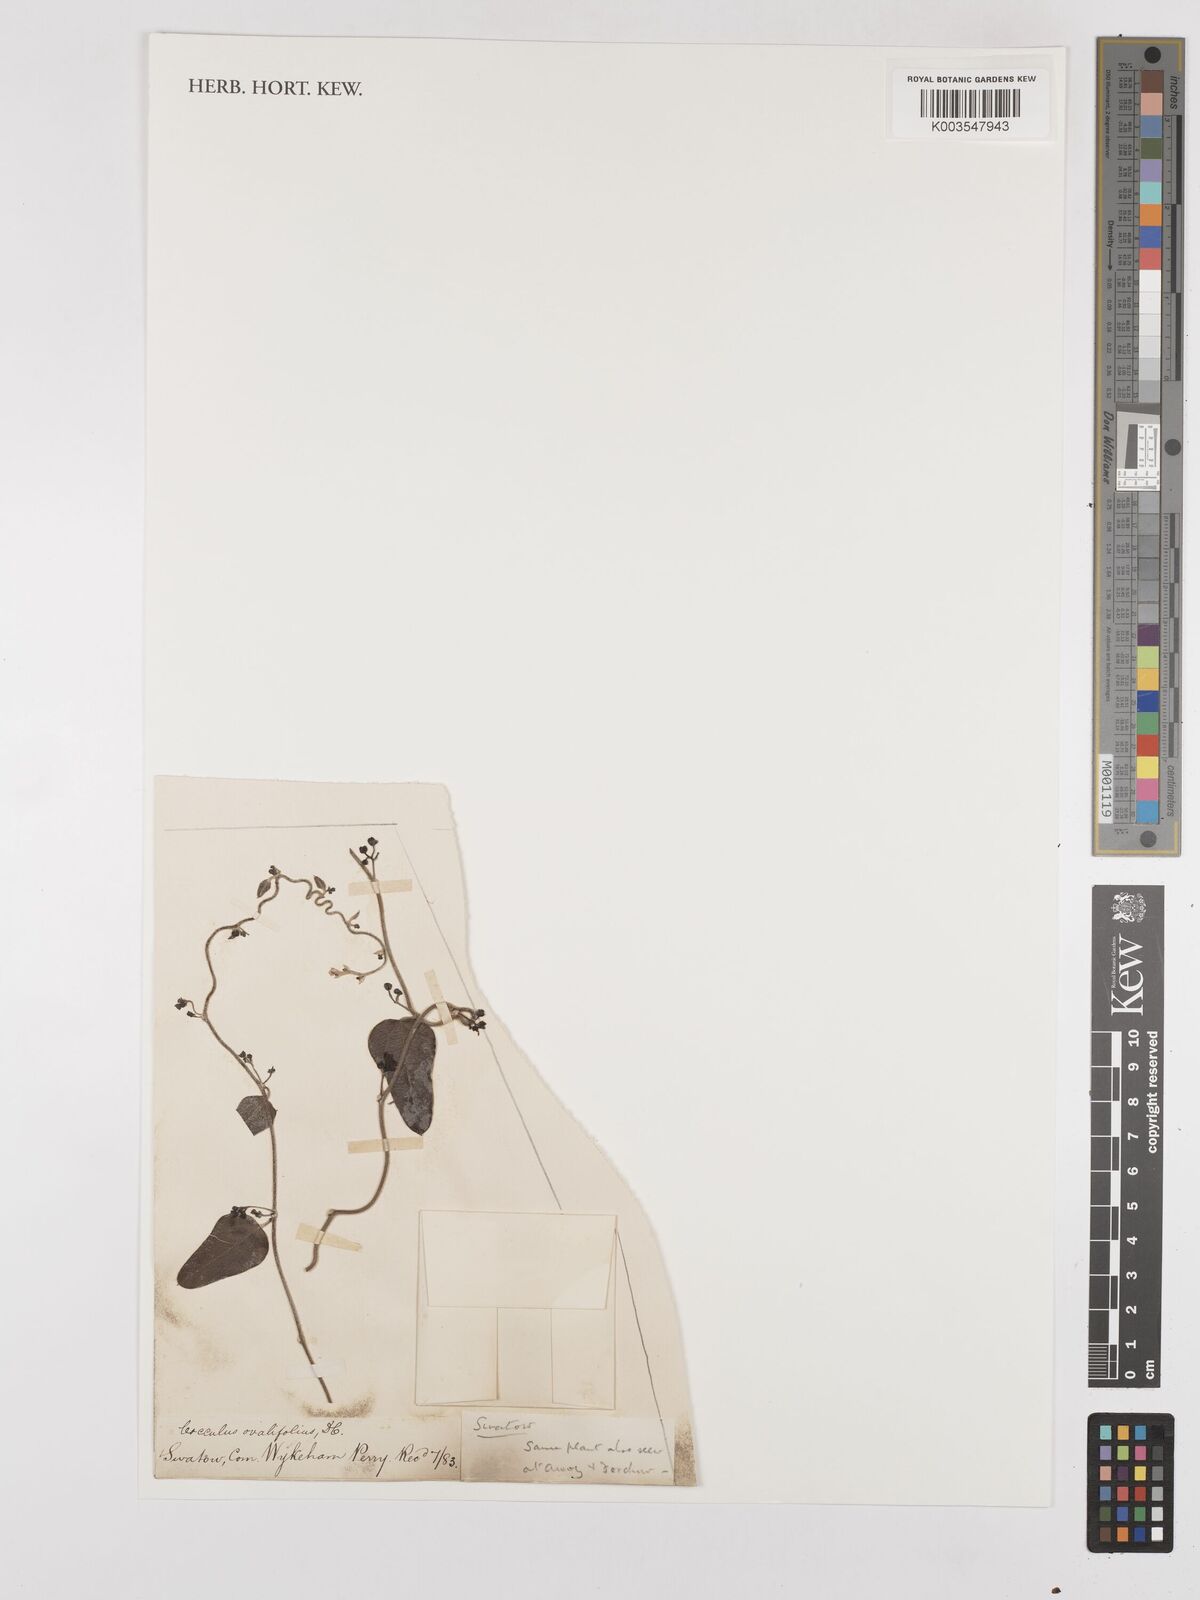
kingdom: Plantae
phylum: Tracheophyta
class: Magnoliopsida
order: Ranunculales
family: Menispermaceae
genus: Cocculus
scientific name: Cocculus orbiculatus
